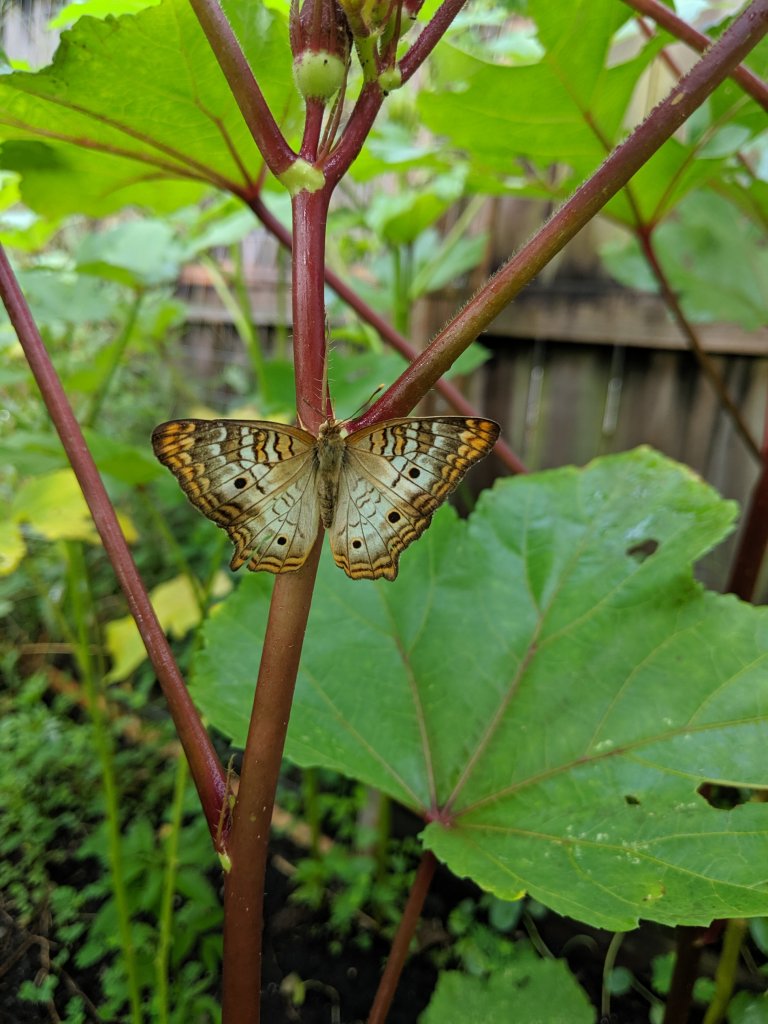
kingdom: Animalia
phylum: Arthropoda
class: Insecta
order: Lepidoptera
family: Nymphalidae
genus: Anartia
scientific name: Anartia jatrophae
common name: White Peacock
